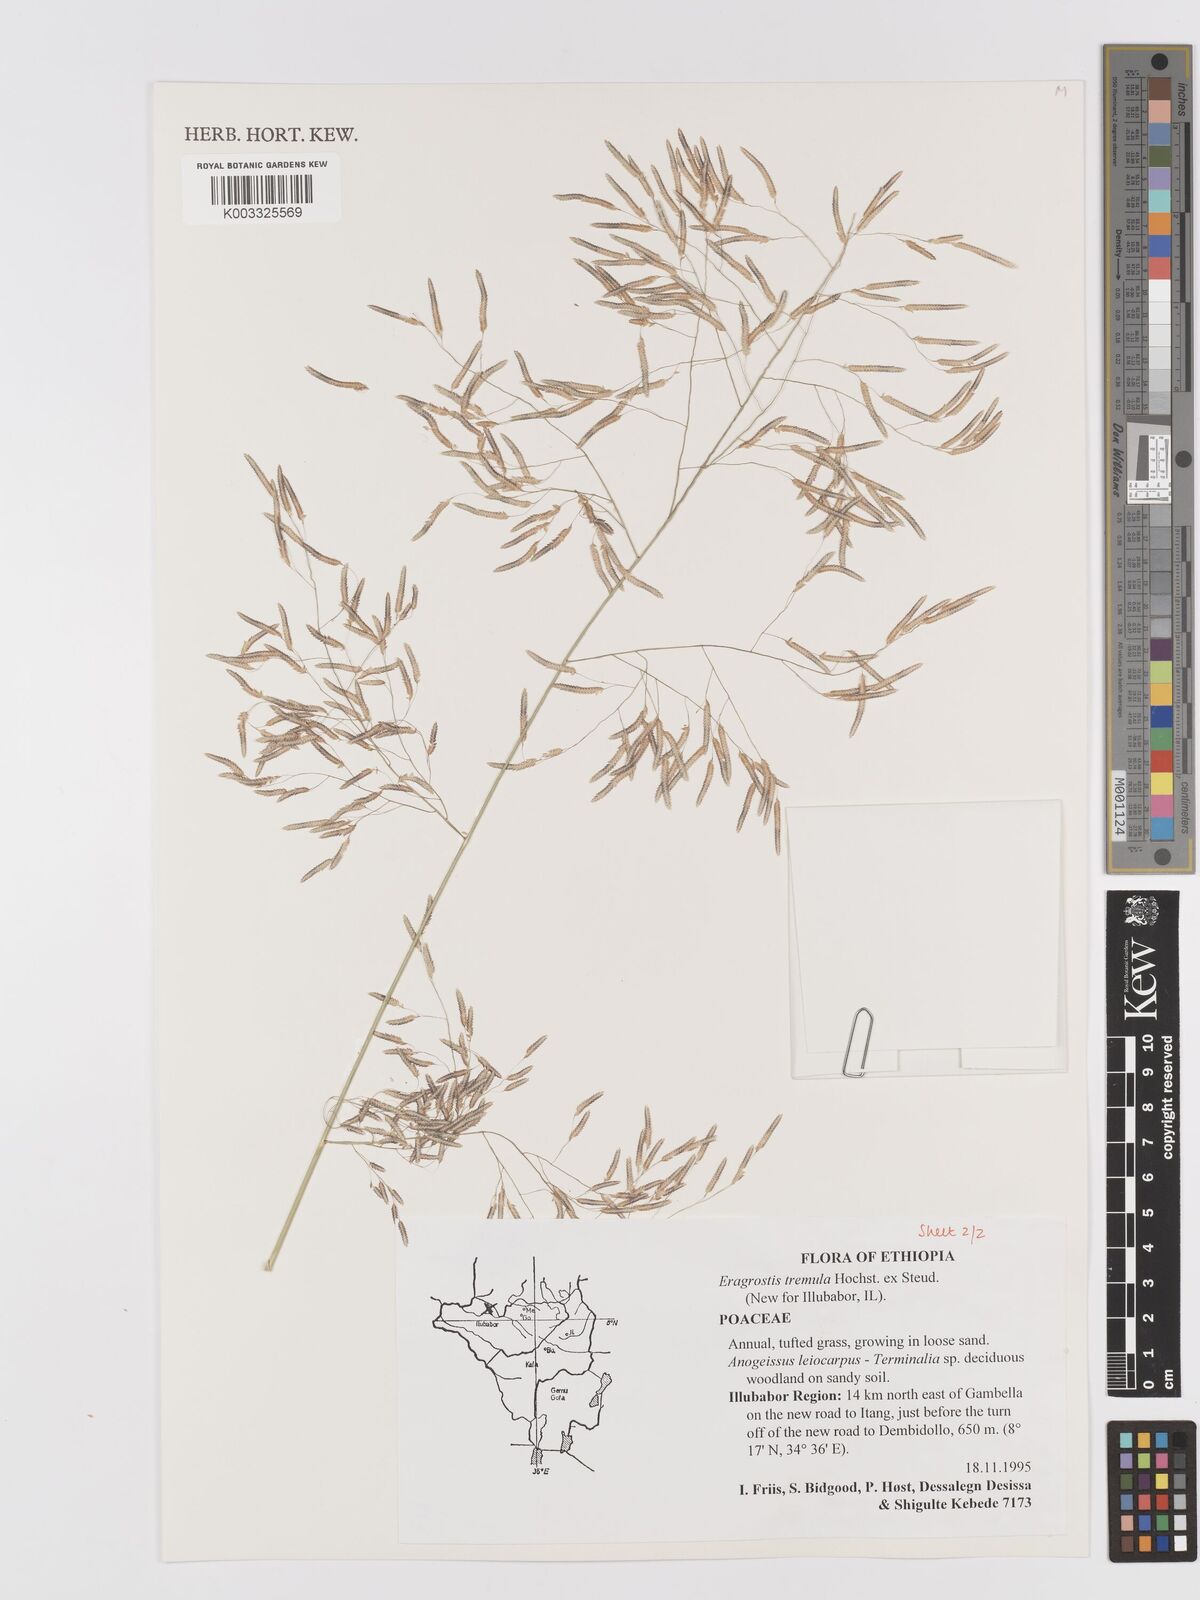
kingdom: Plantae
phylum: Tracheophyta
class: Liliopsida
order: Poales
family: Poaceae
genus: Eragrostis
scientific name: Eragrostis tremula
